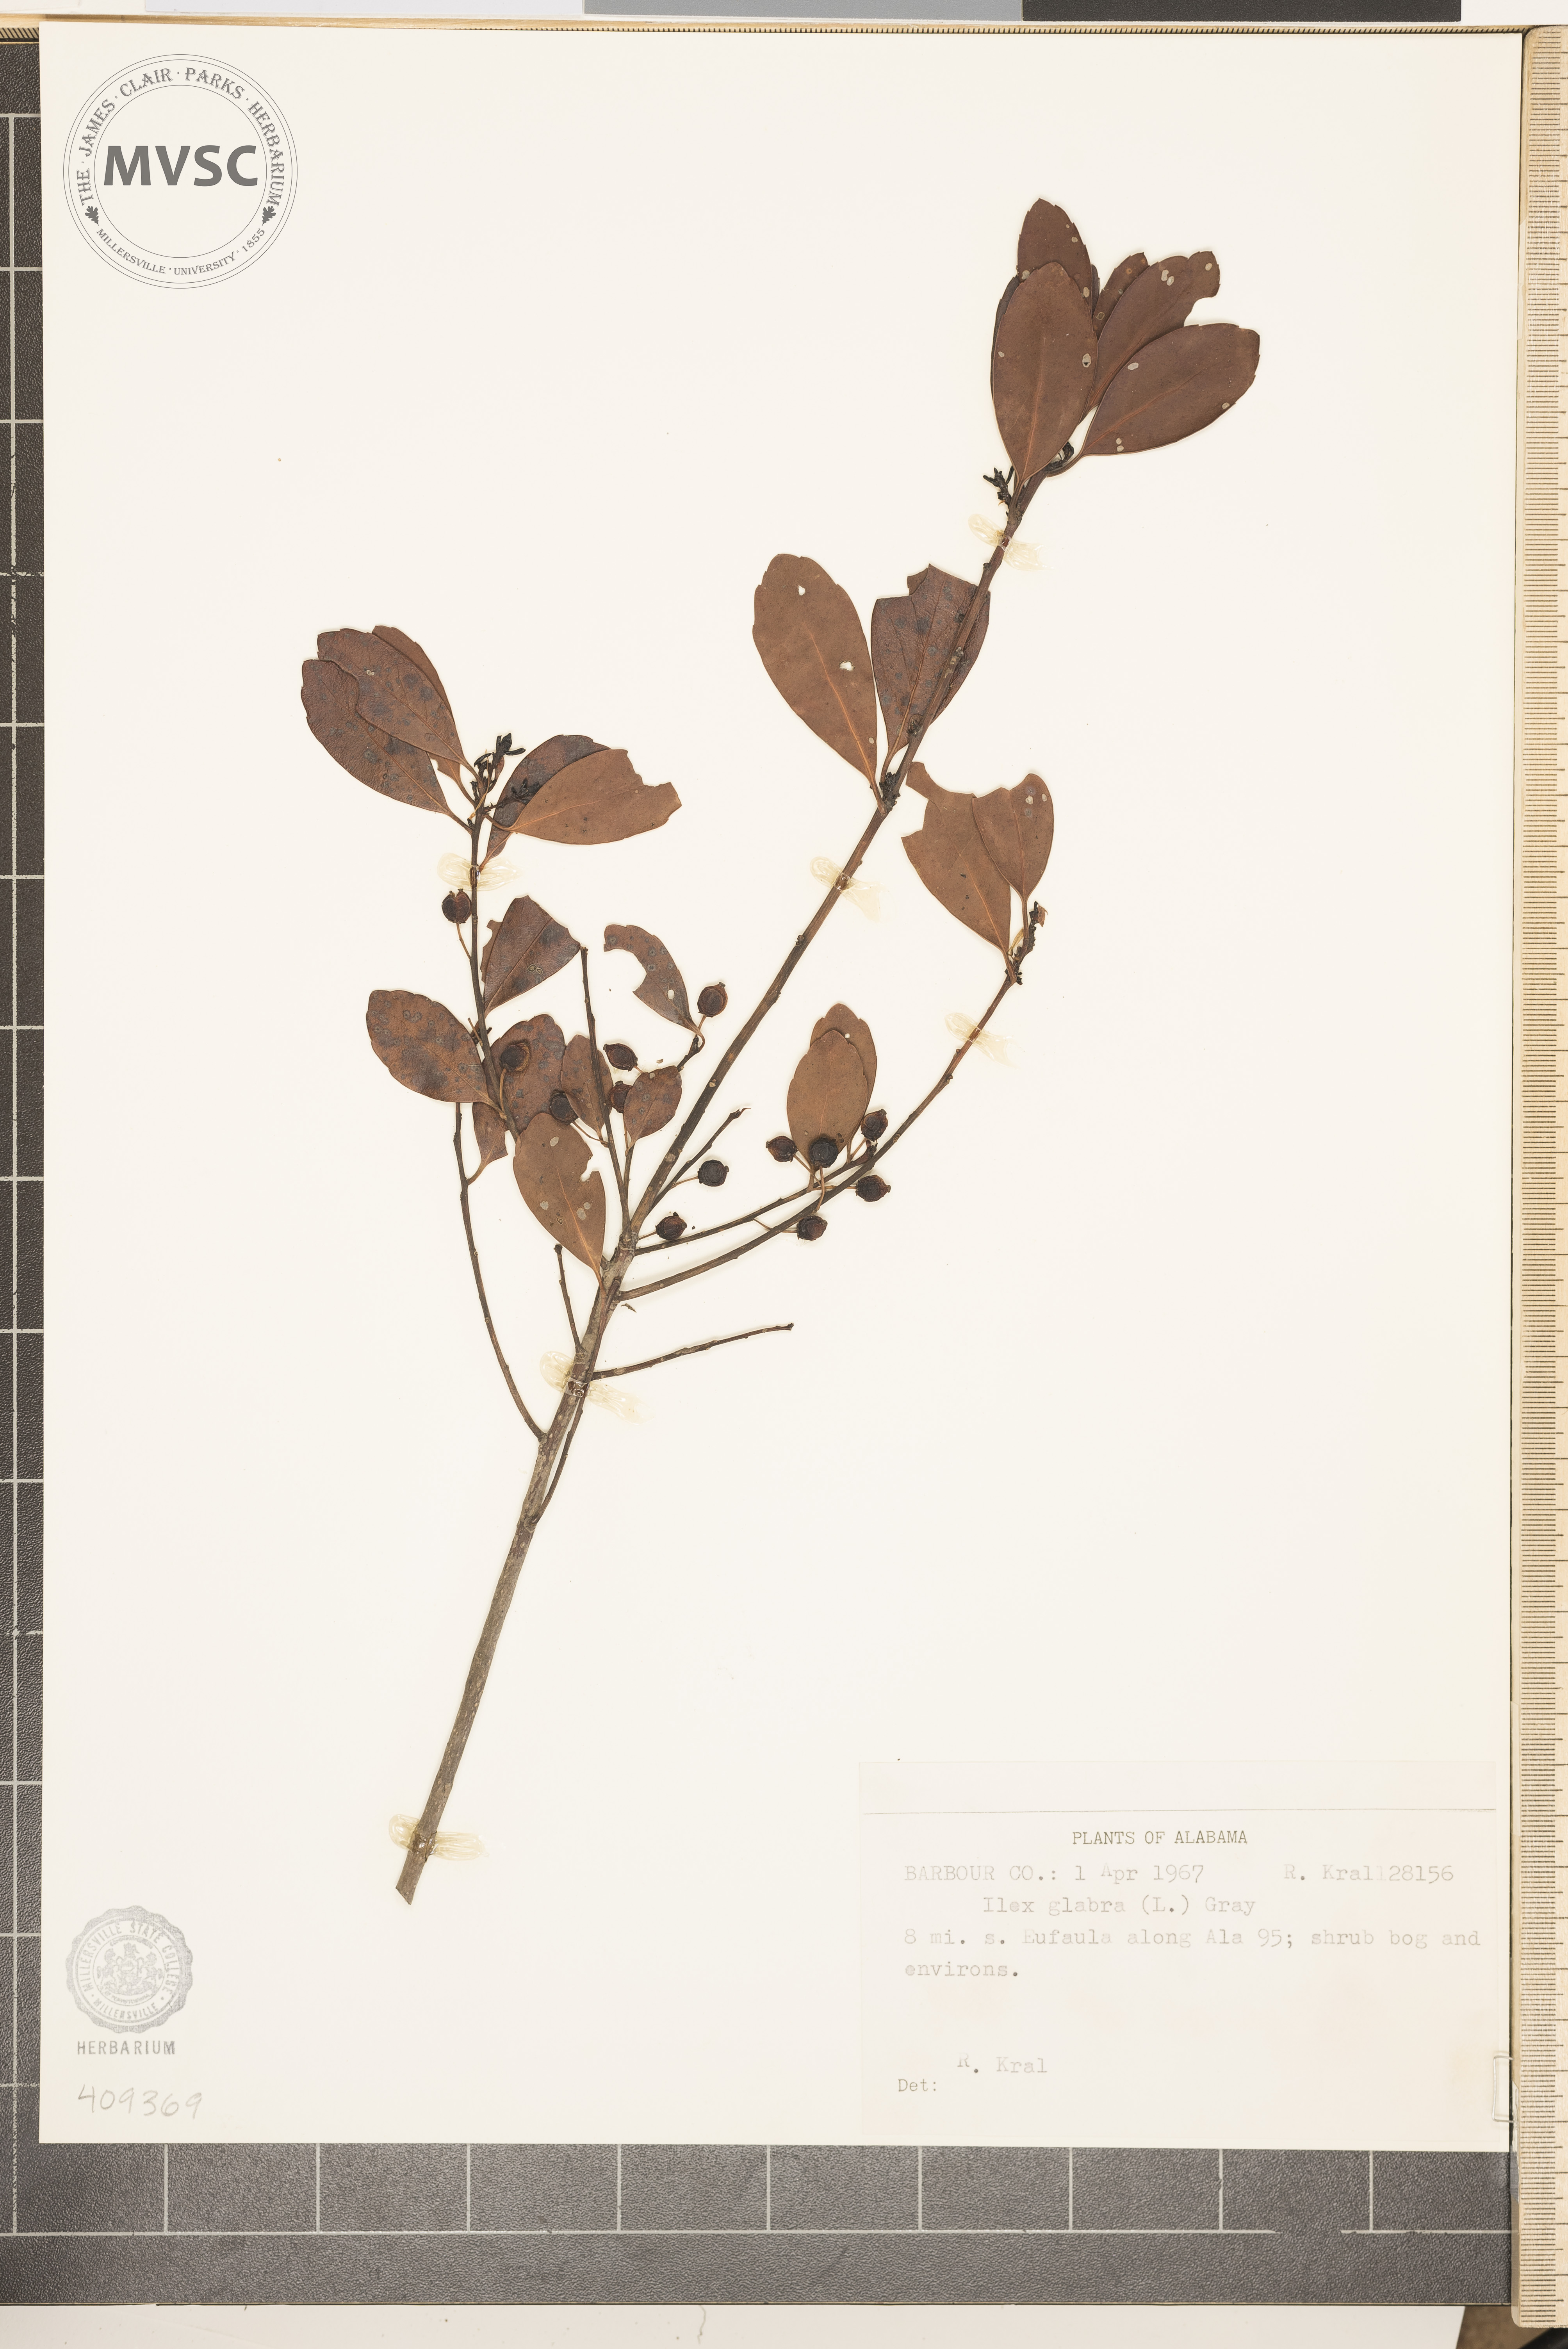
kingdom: Plantae
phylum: Tracheophyta
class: Magnoliopsida
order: Aquifoliales
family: Aquifoliaceae
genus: Ilex
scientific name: Ilex glabra
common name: Bitter gallberry
